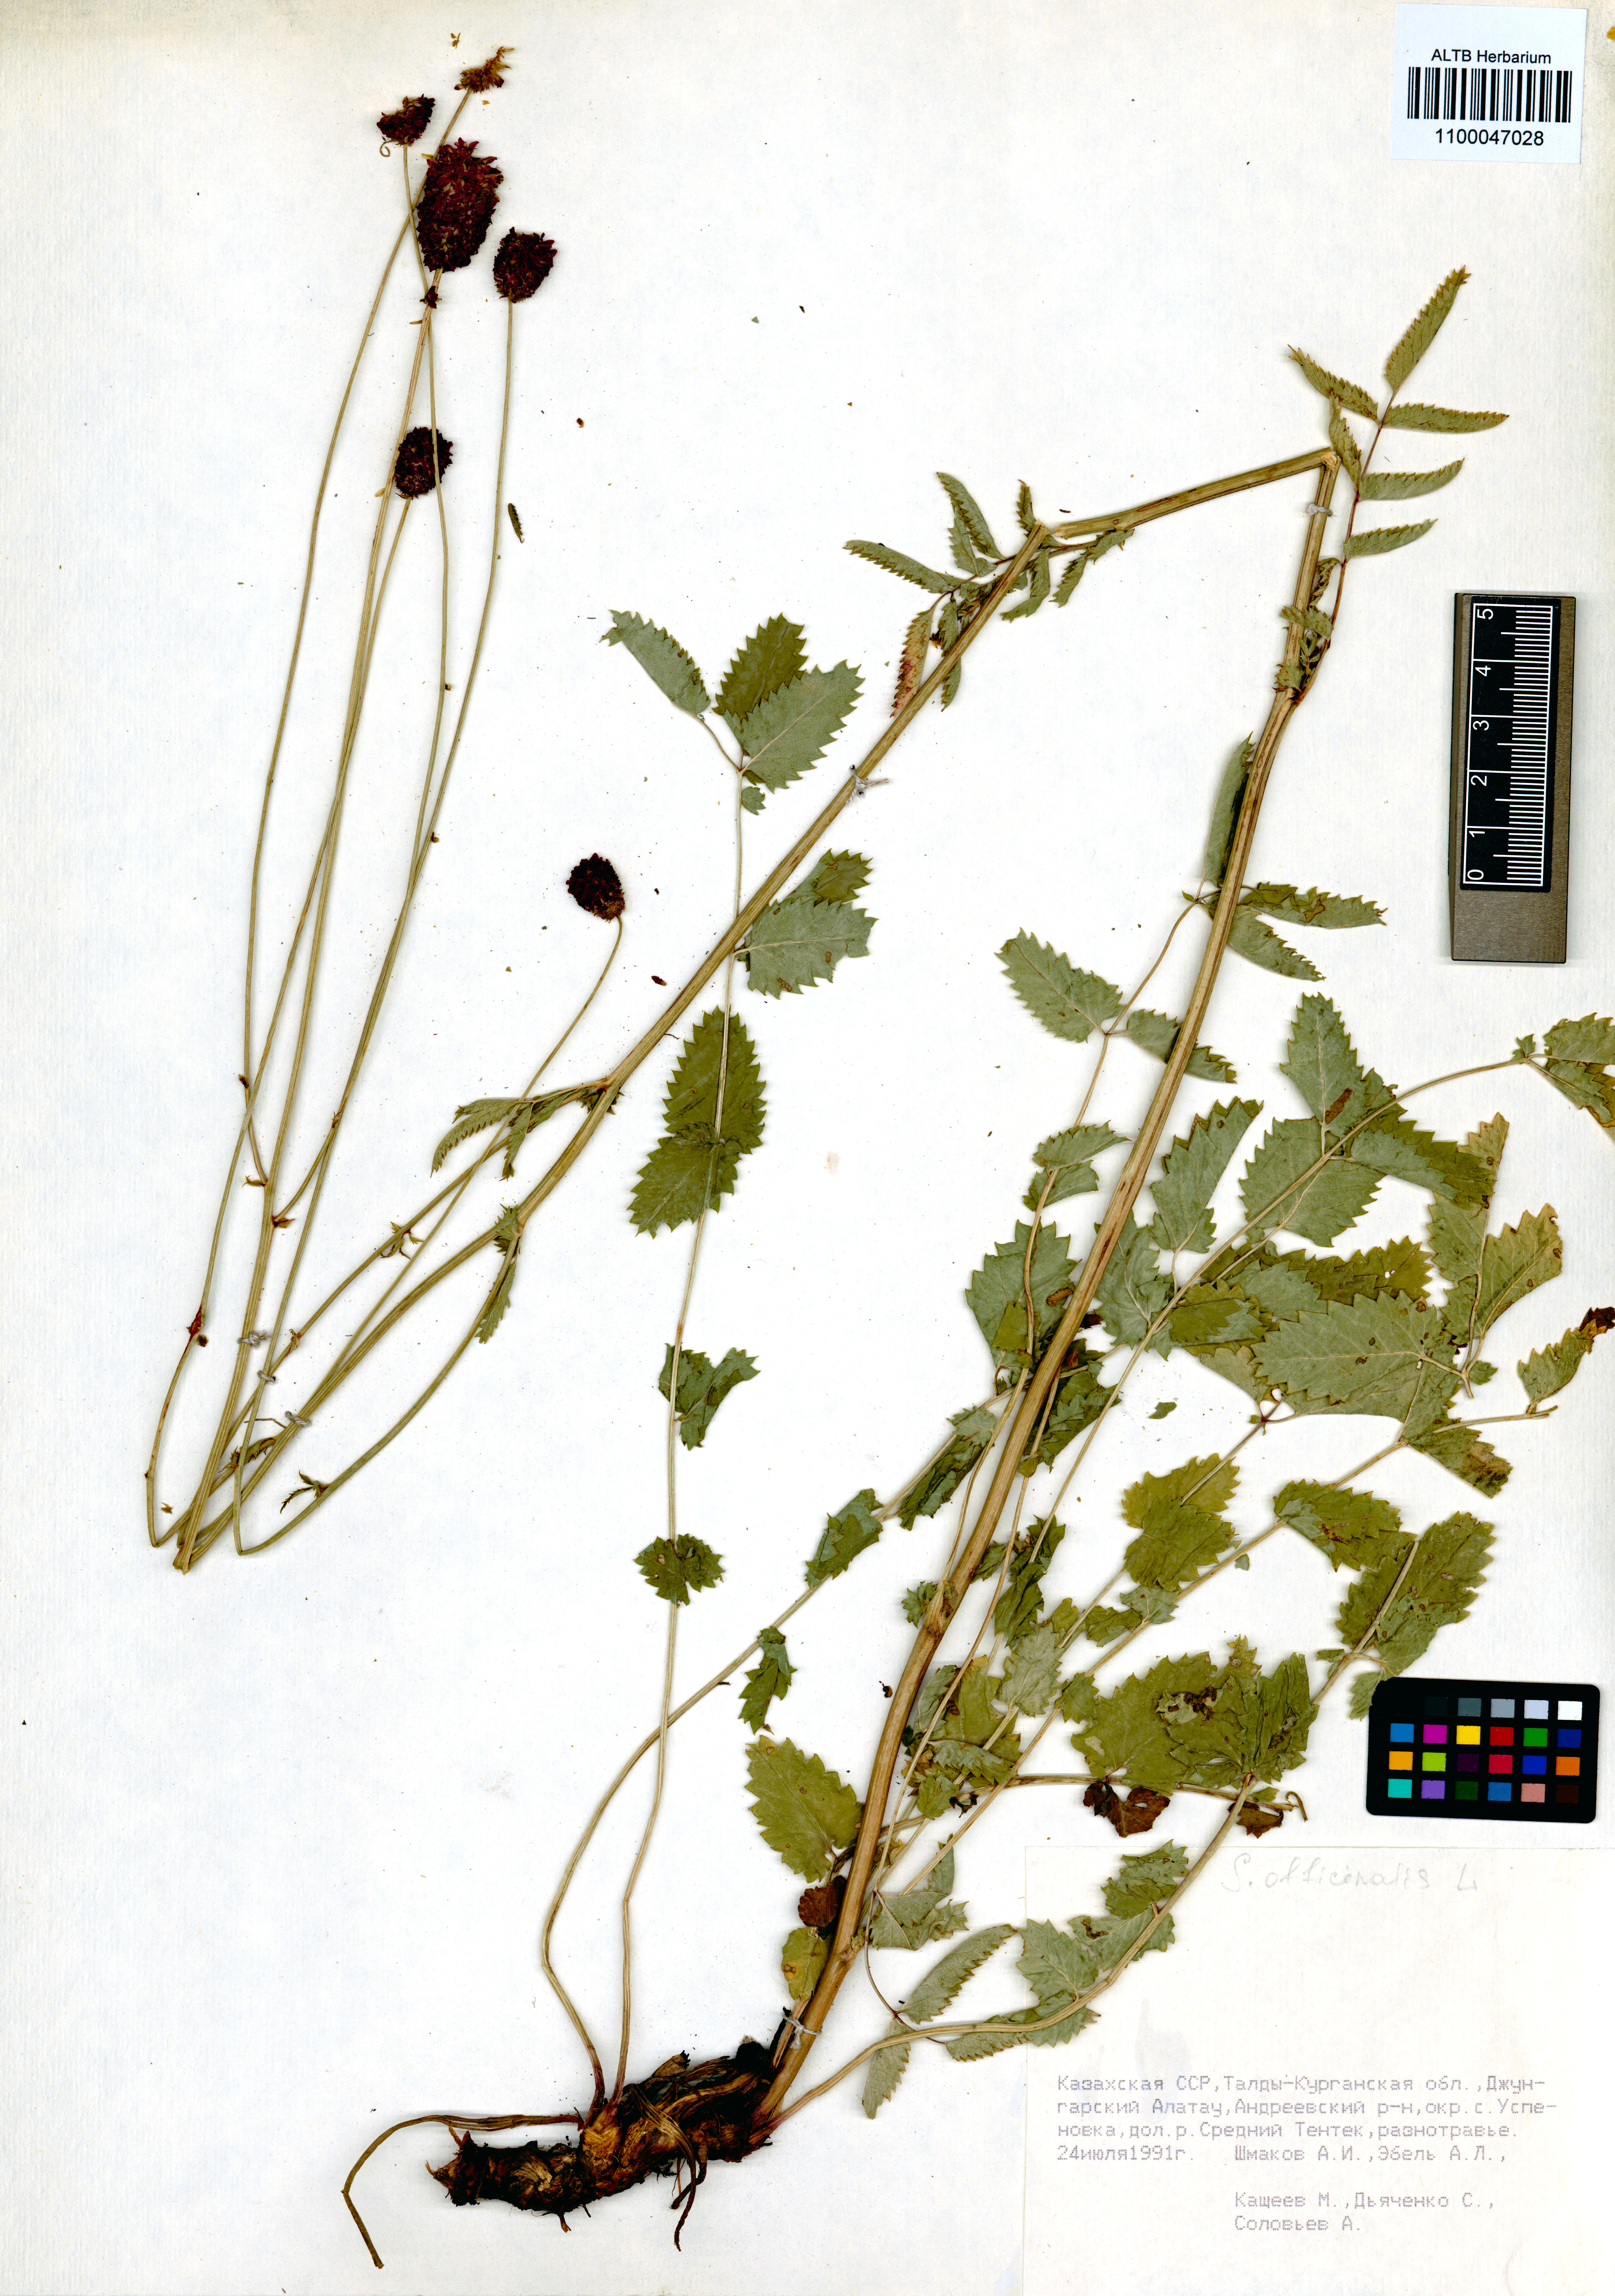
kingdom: Plantae
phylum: Tracheophyta
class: Magnoliopsida
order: Rosales
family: Rosaceae
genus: Sanguisorba
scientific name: Sanguisorba officinalis
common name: Great burnet
